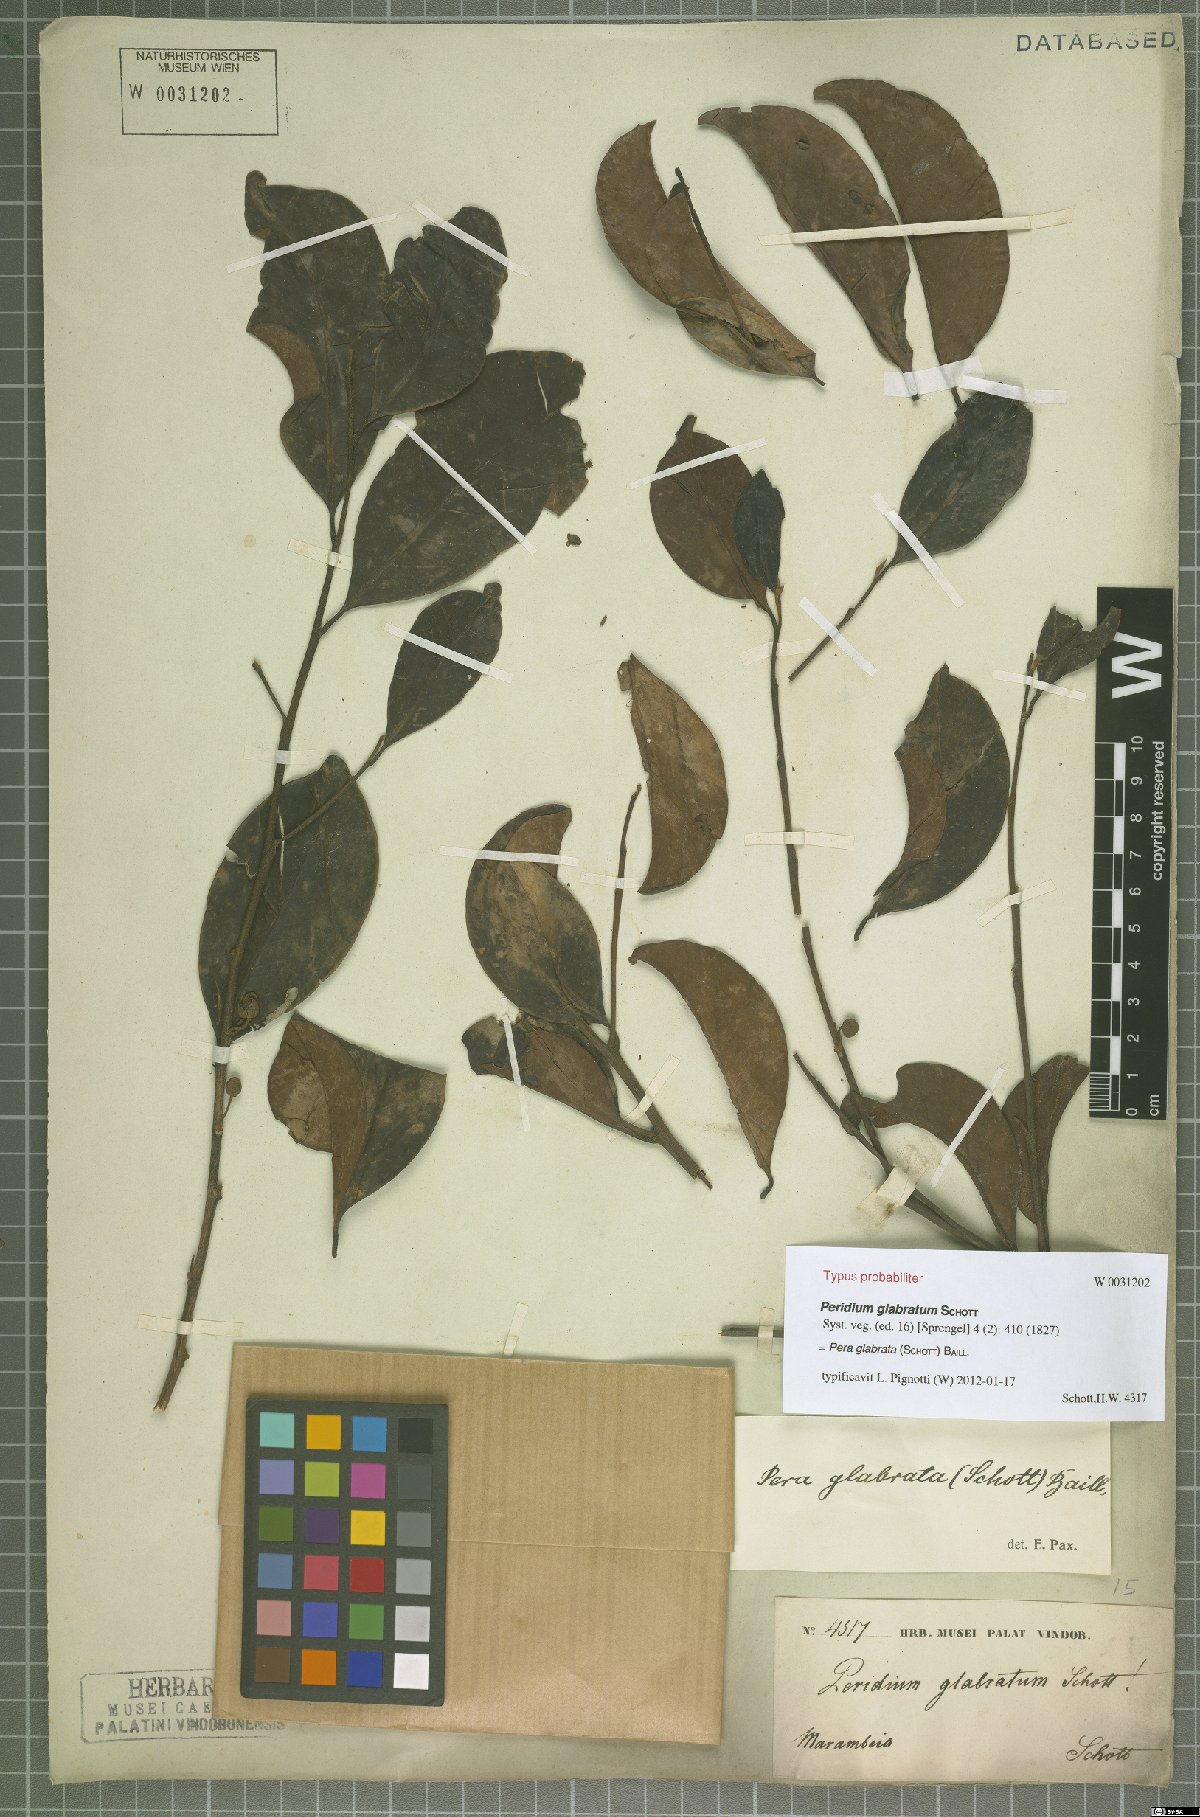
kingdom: Plantae
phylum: Tracheophyta
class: Magnoliopsida
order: Malpighiales
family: Peraceae
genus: Pera
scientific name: Pera glabrata
